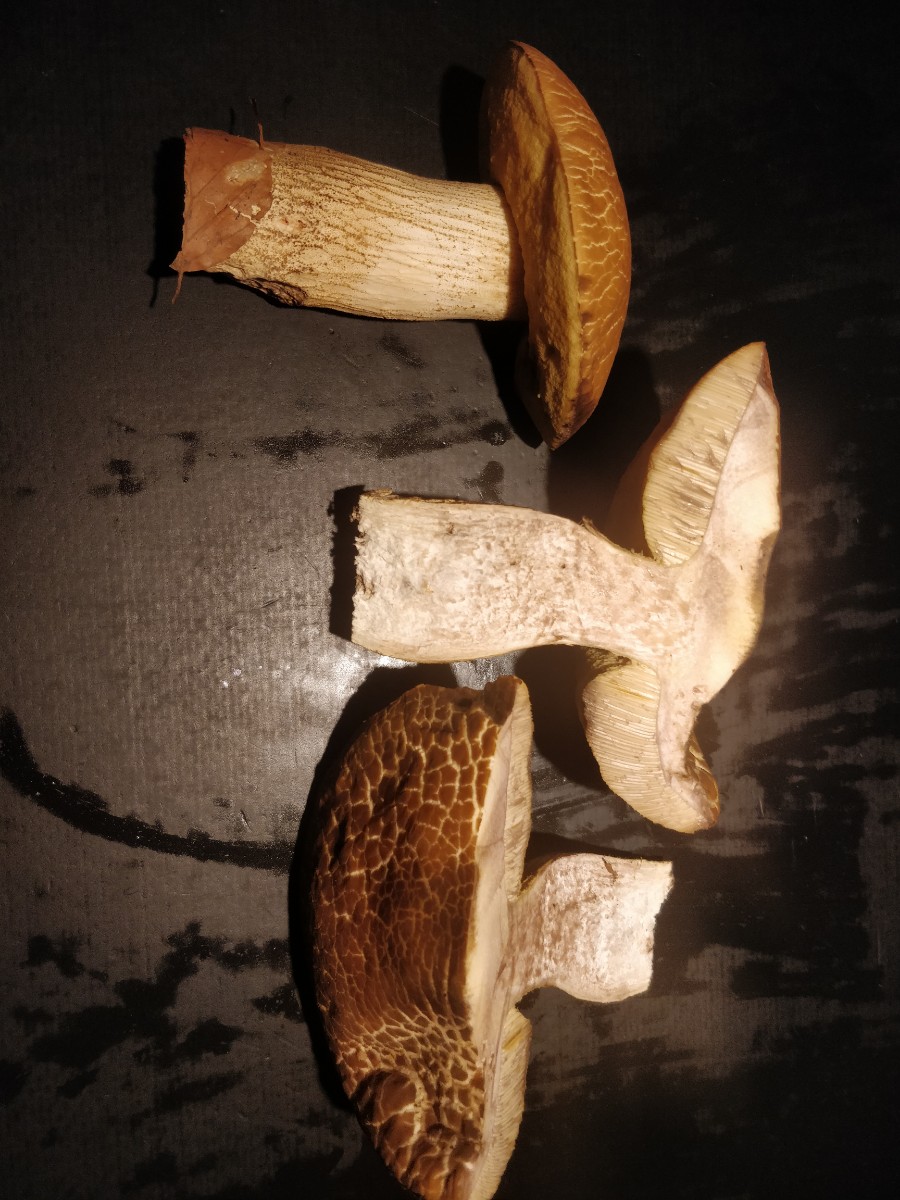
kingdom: Fungi
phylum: Basidiomycota
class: Agaricomycetes
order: Boletales
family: Boletaceae
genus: Leccinellum
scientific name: Leccinellum crocipodium
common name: gul skælrørhat
